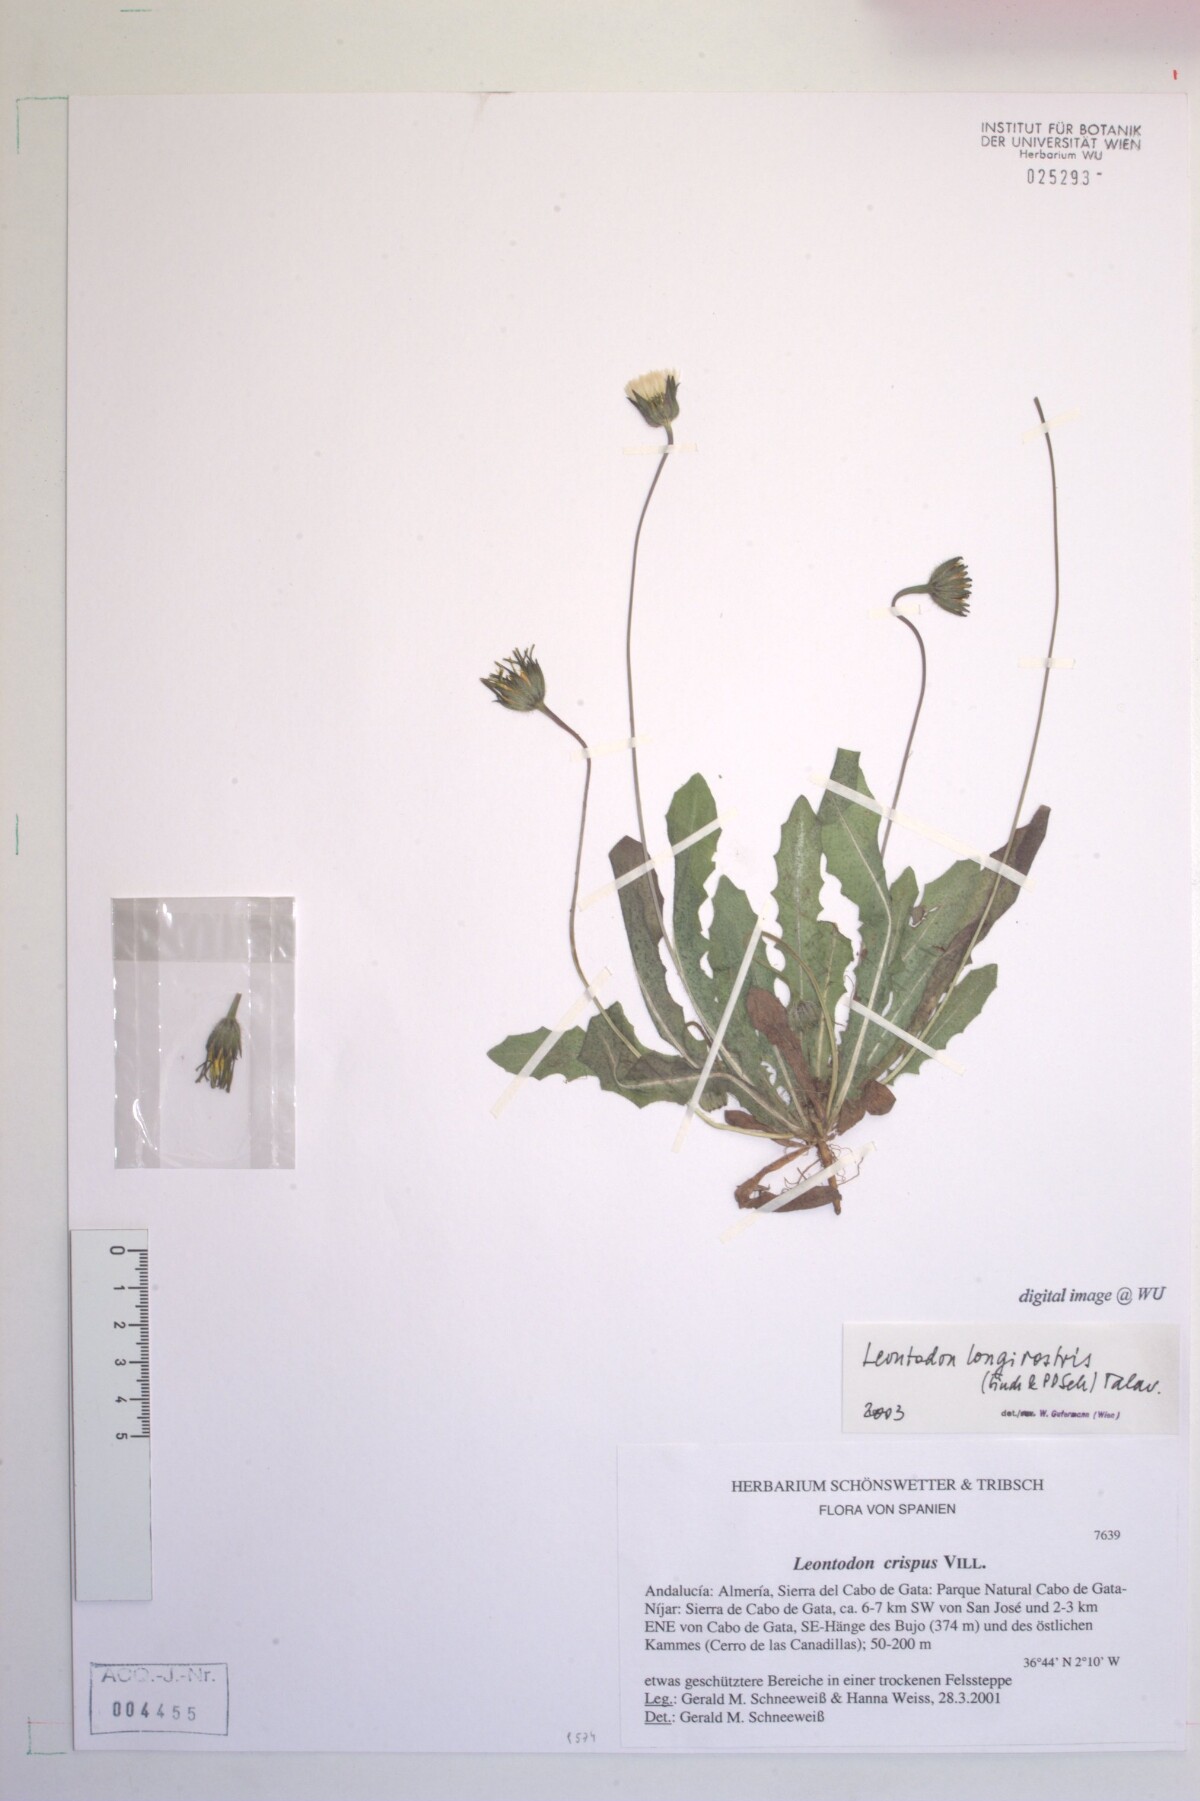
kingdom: Plantae
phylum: Tracheophyta
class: Magnoliopsida
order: Asterales
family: Asteraceae
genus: Thrincia
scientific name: Thrincia hispida
